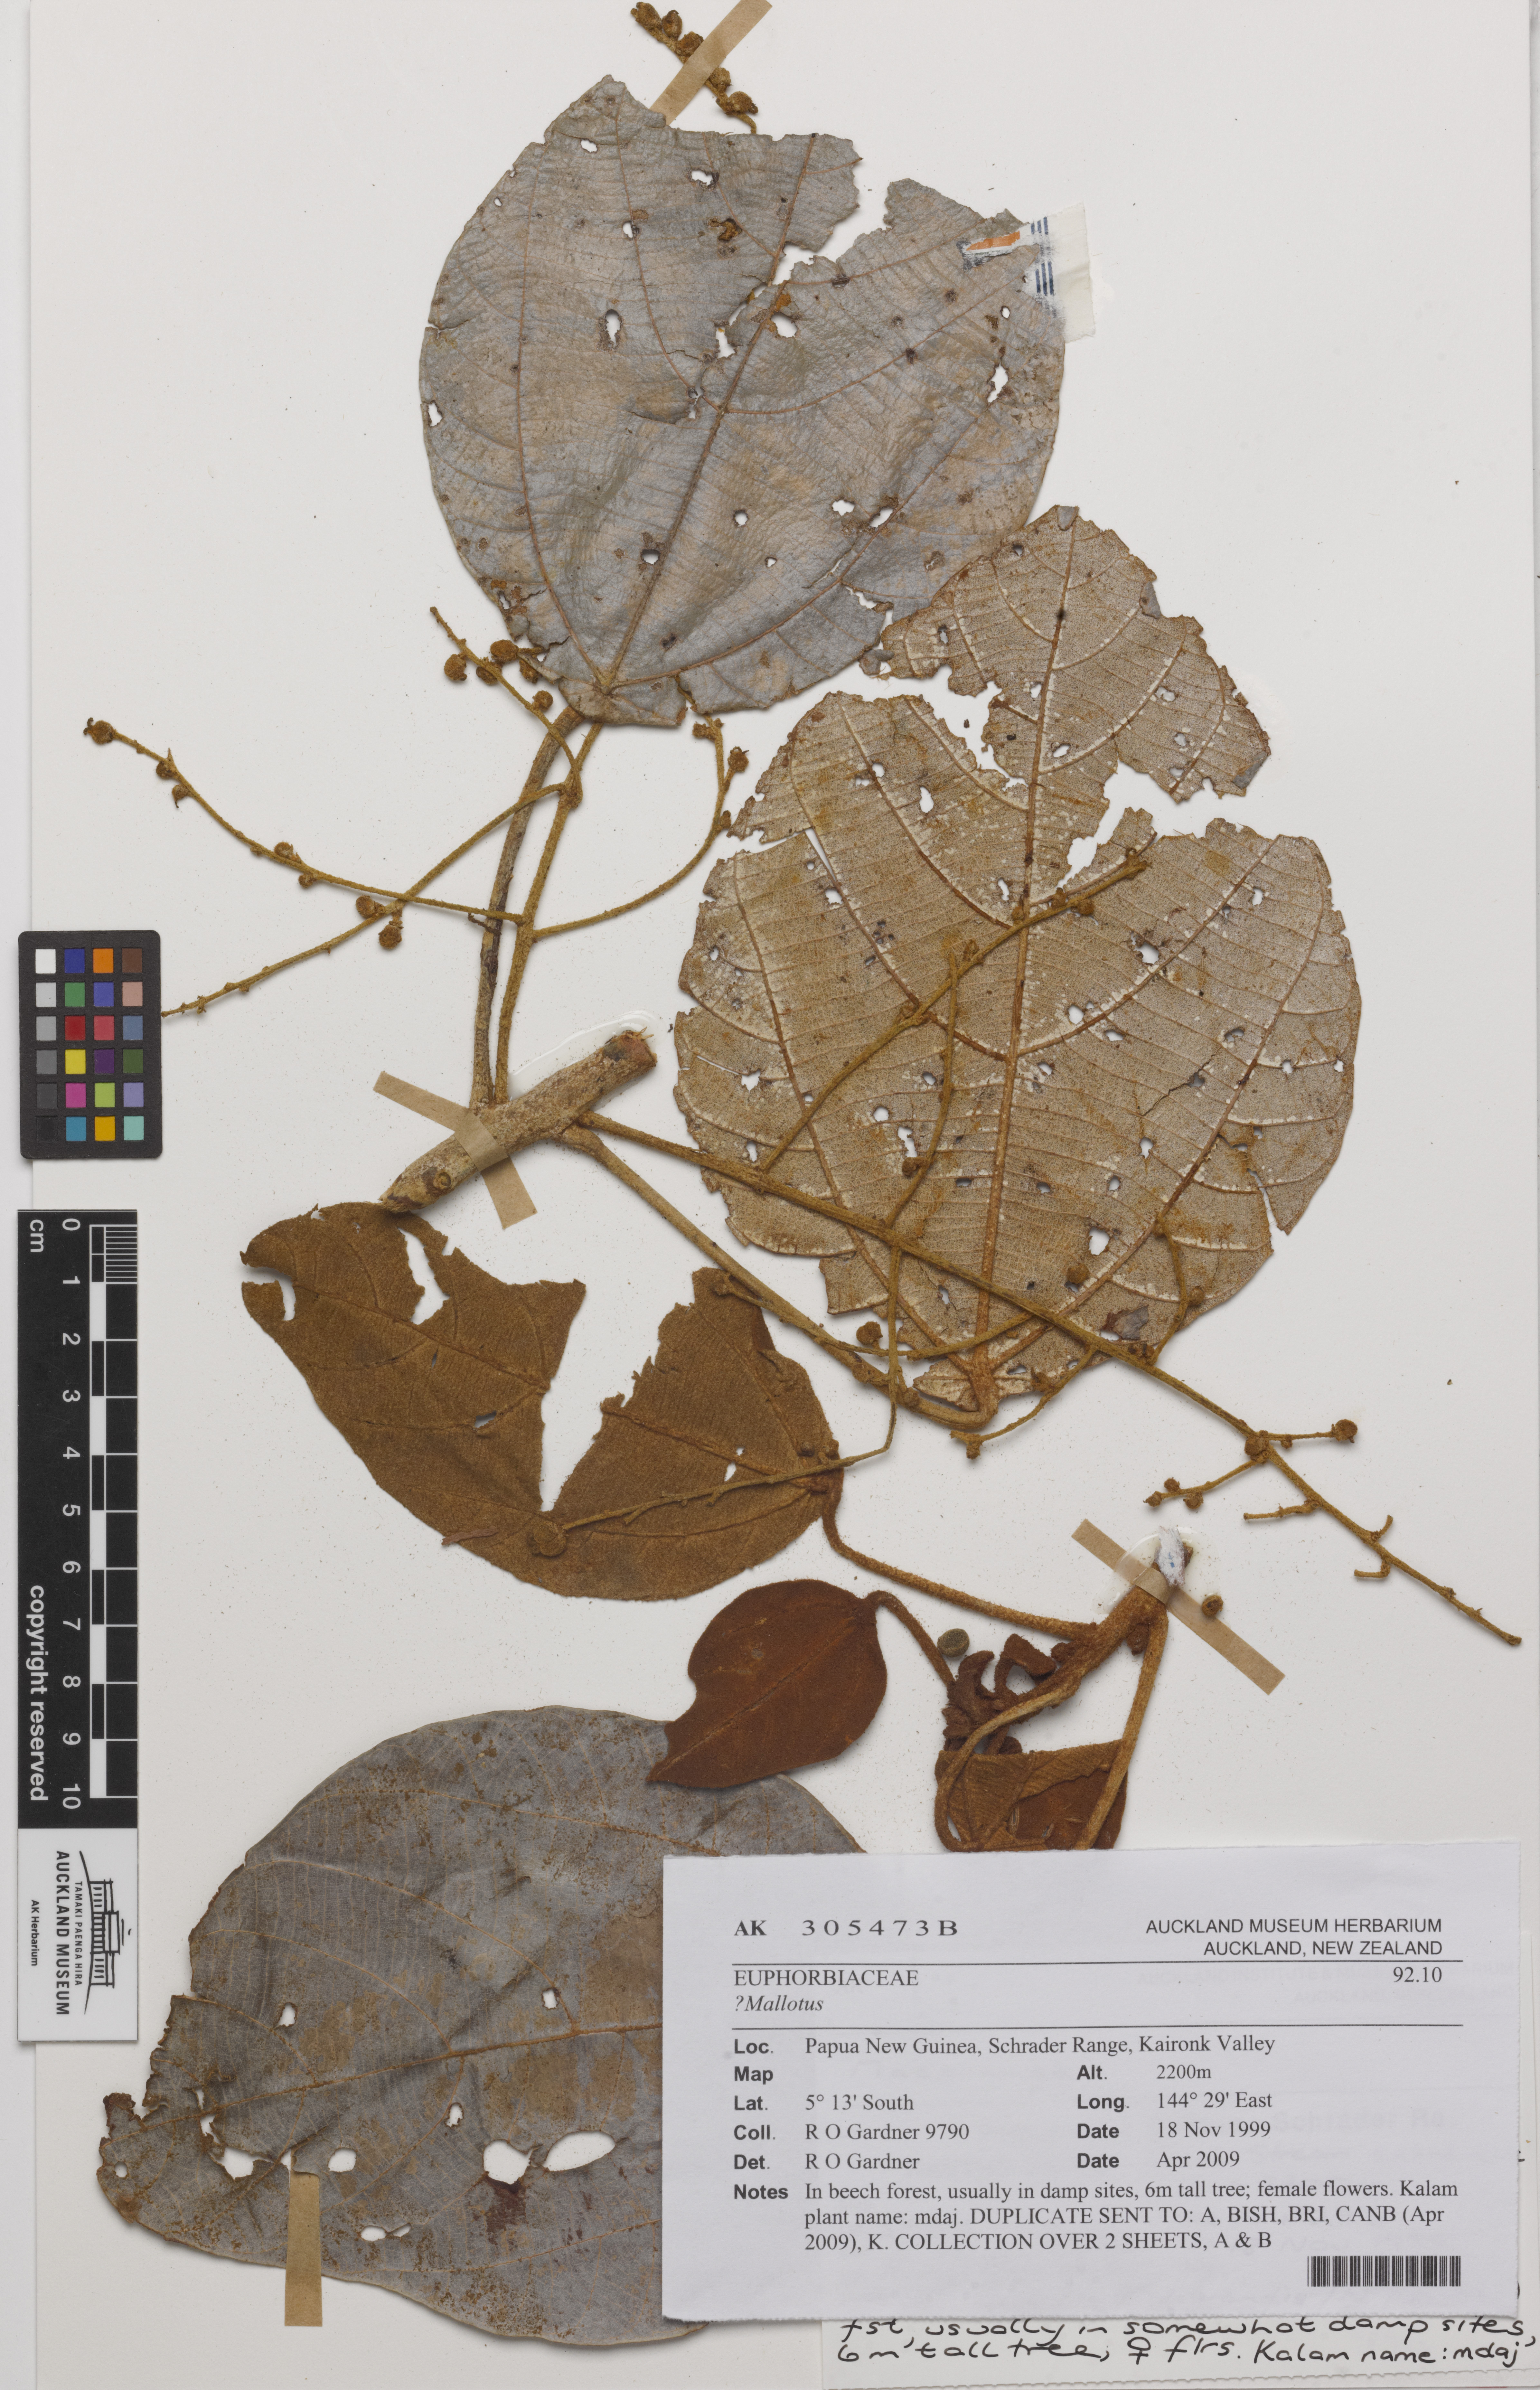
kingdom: Plantae
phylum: Tracheophyta
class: Magnoliopsida
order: Malpighiales
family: Euphorbiaceae
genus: Mallotus
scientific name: Mallotus
